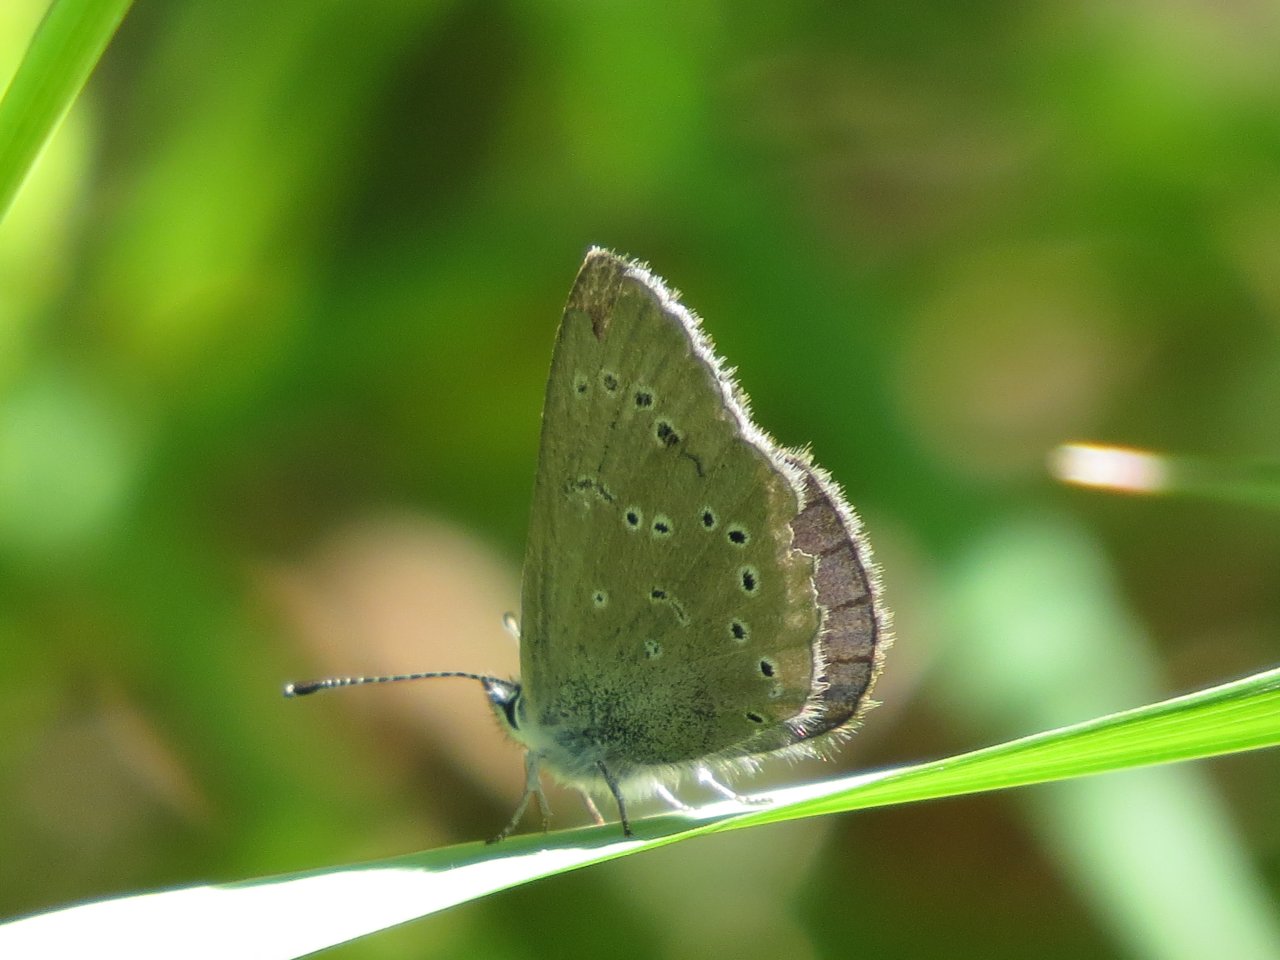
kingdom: Animalia
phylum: Arthropoda
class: Insecta
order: Lepidoptera
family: Lycaenidae
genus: Glaucopsyche
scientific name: Glaucopsyche lygdamus
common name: Silvery Blue
